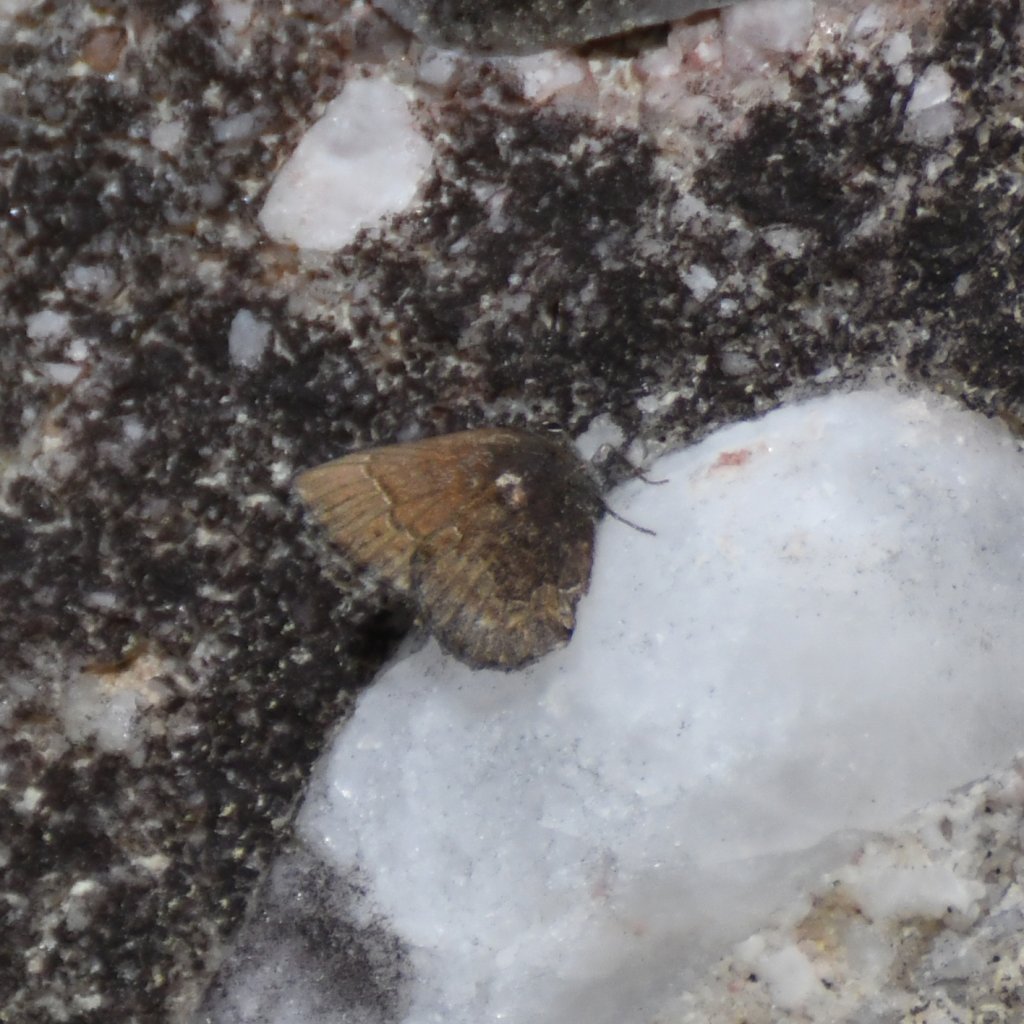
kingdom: Animalia
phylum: Arthropoda
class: Insecta
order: Lepidoptera
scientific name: Lepidoptera
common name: Butterflies
